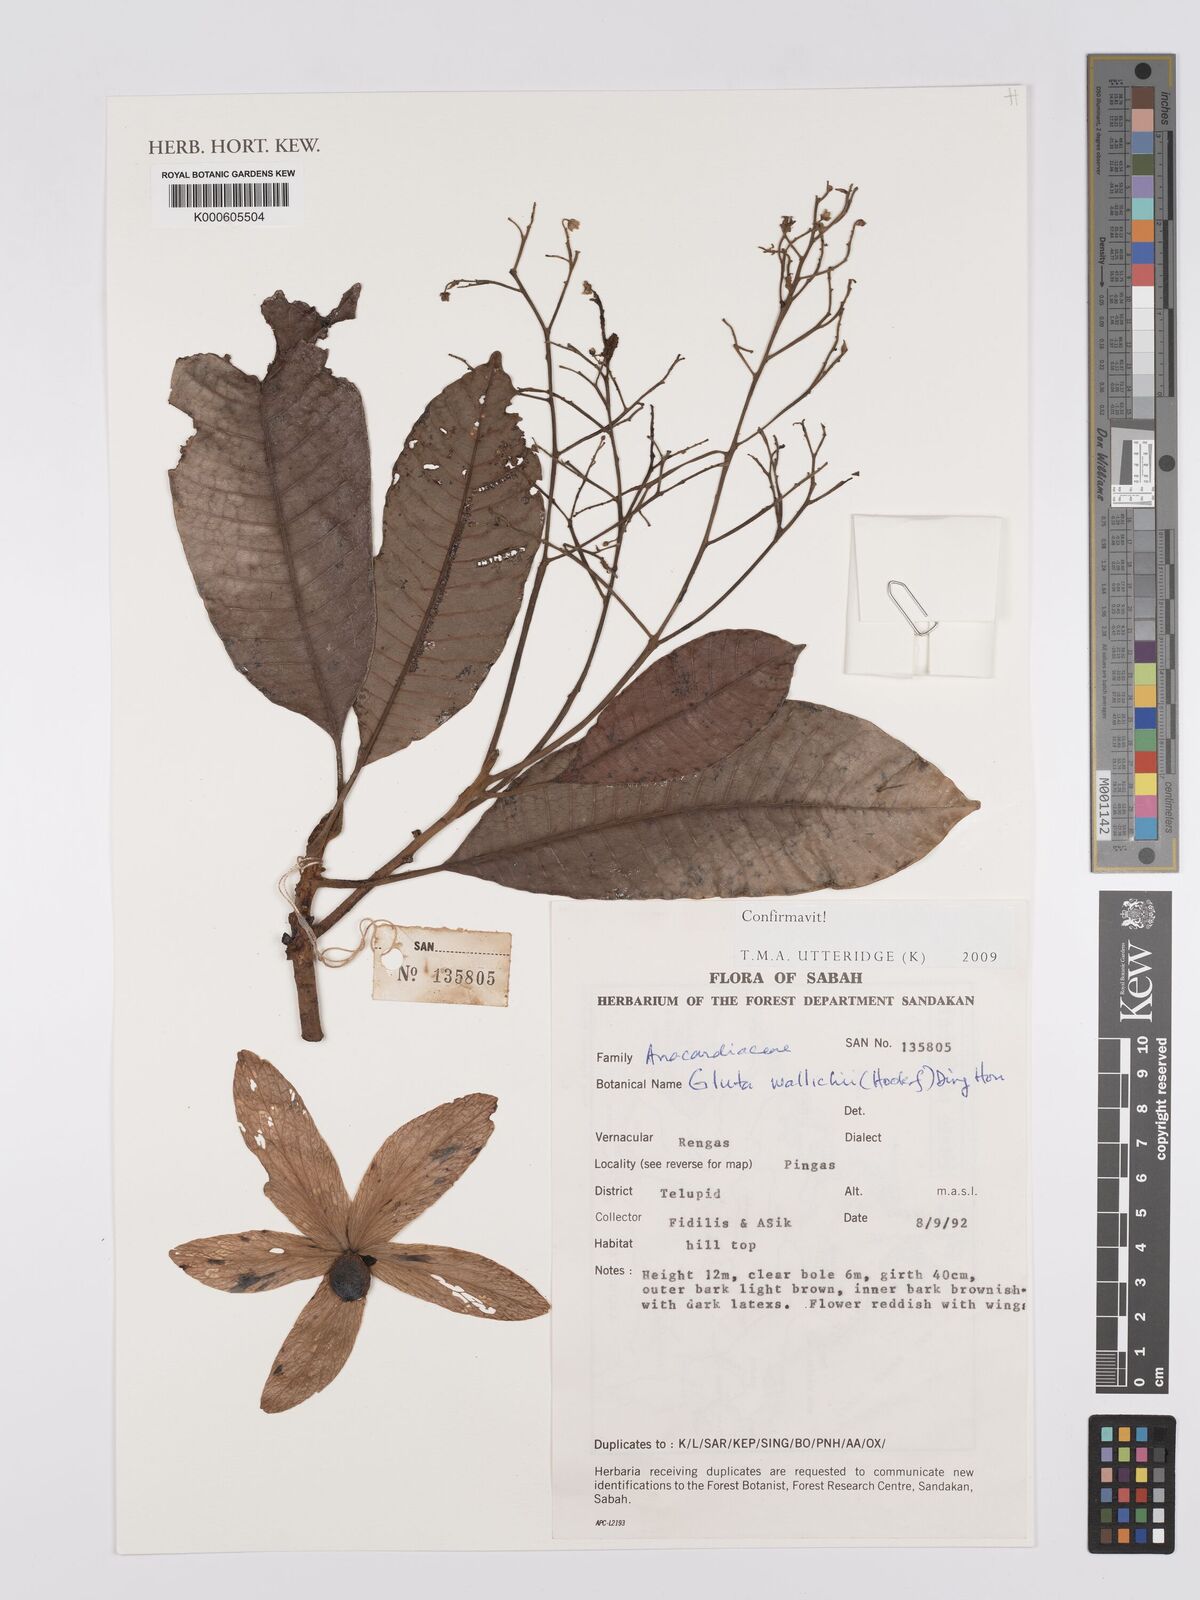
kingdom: Plantae
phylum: Tracheophyta
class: Magnoliopsida
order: Sapindales
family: Anacardiaceae
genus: Gluta
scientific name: Gluta wallichii
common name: Common rengas
